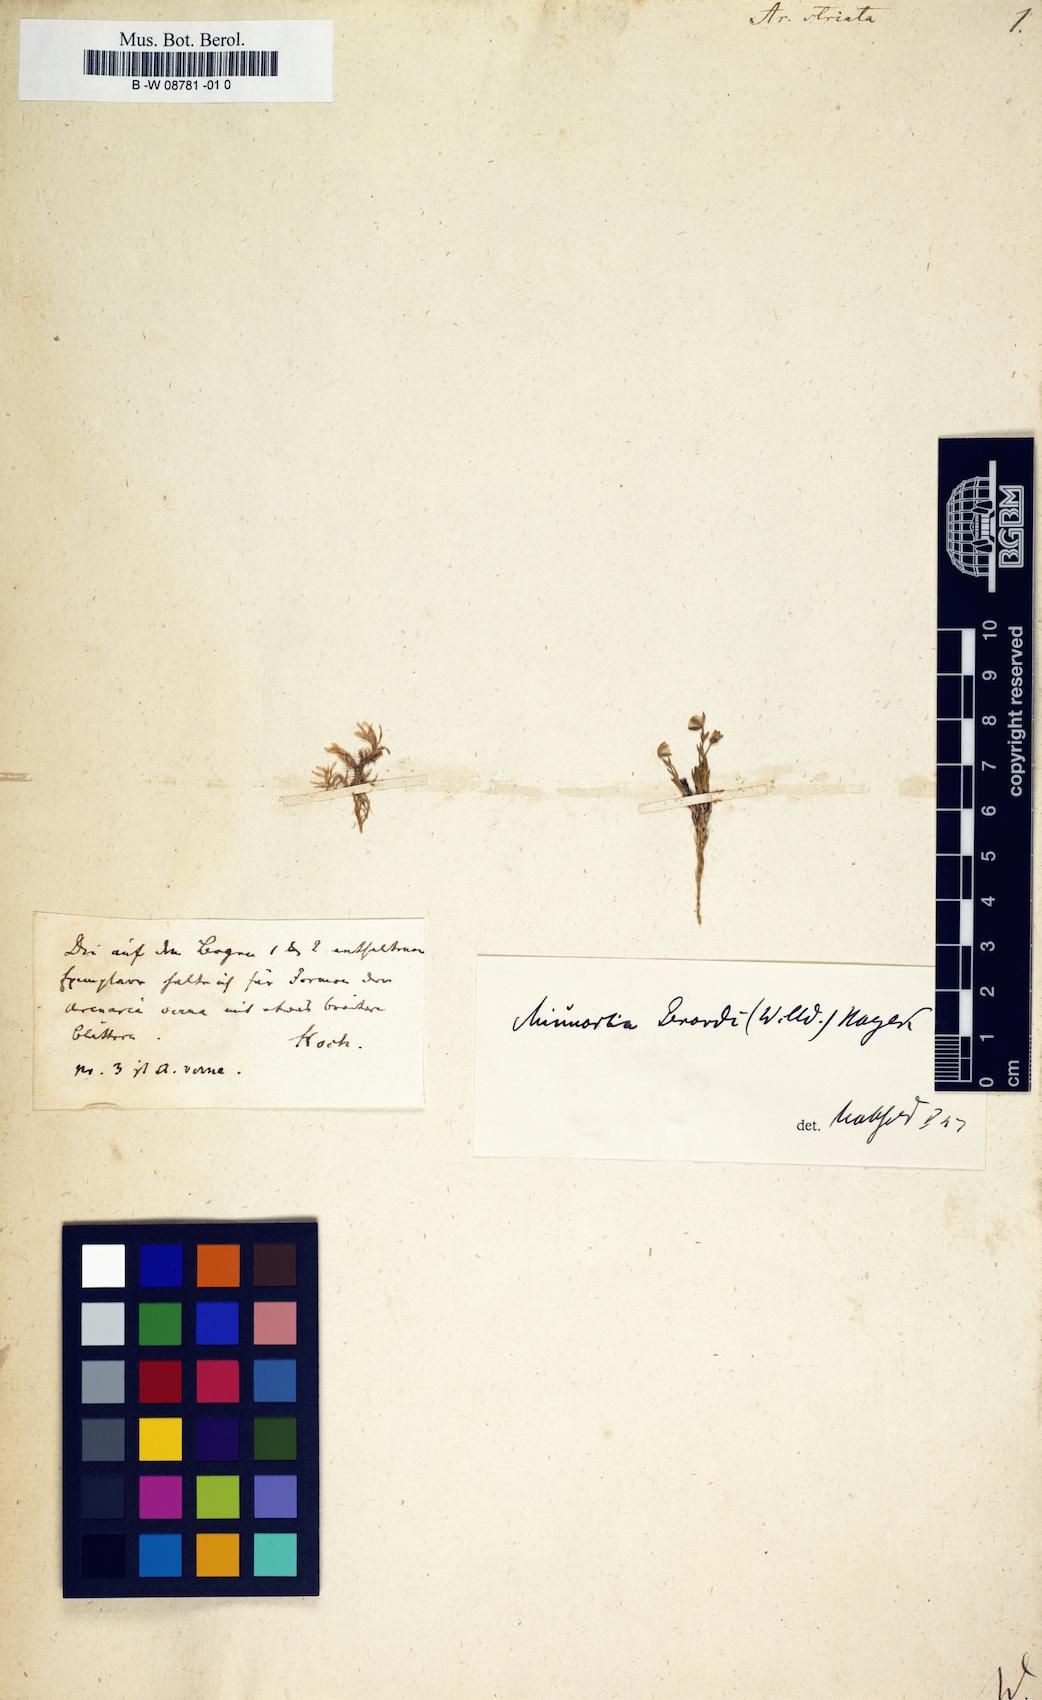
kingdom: Plantae
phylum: Tracheophyta
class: Magnoliopsida
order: Caryophyllales
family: Caryophyllaceae
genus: Cherleria
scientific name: Cherleria laricifolia
